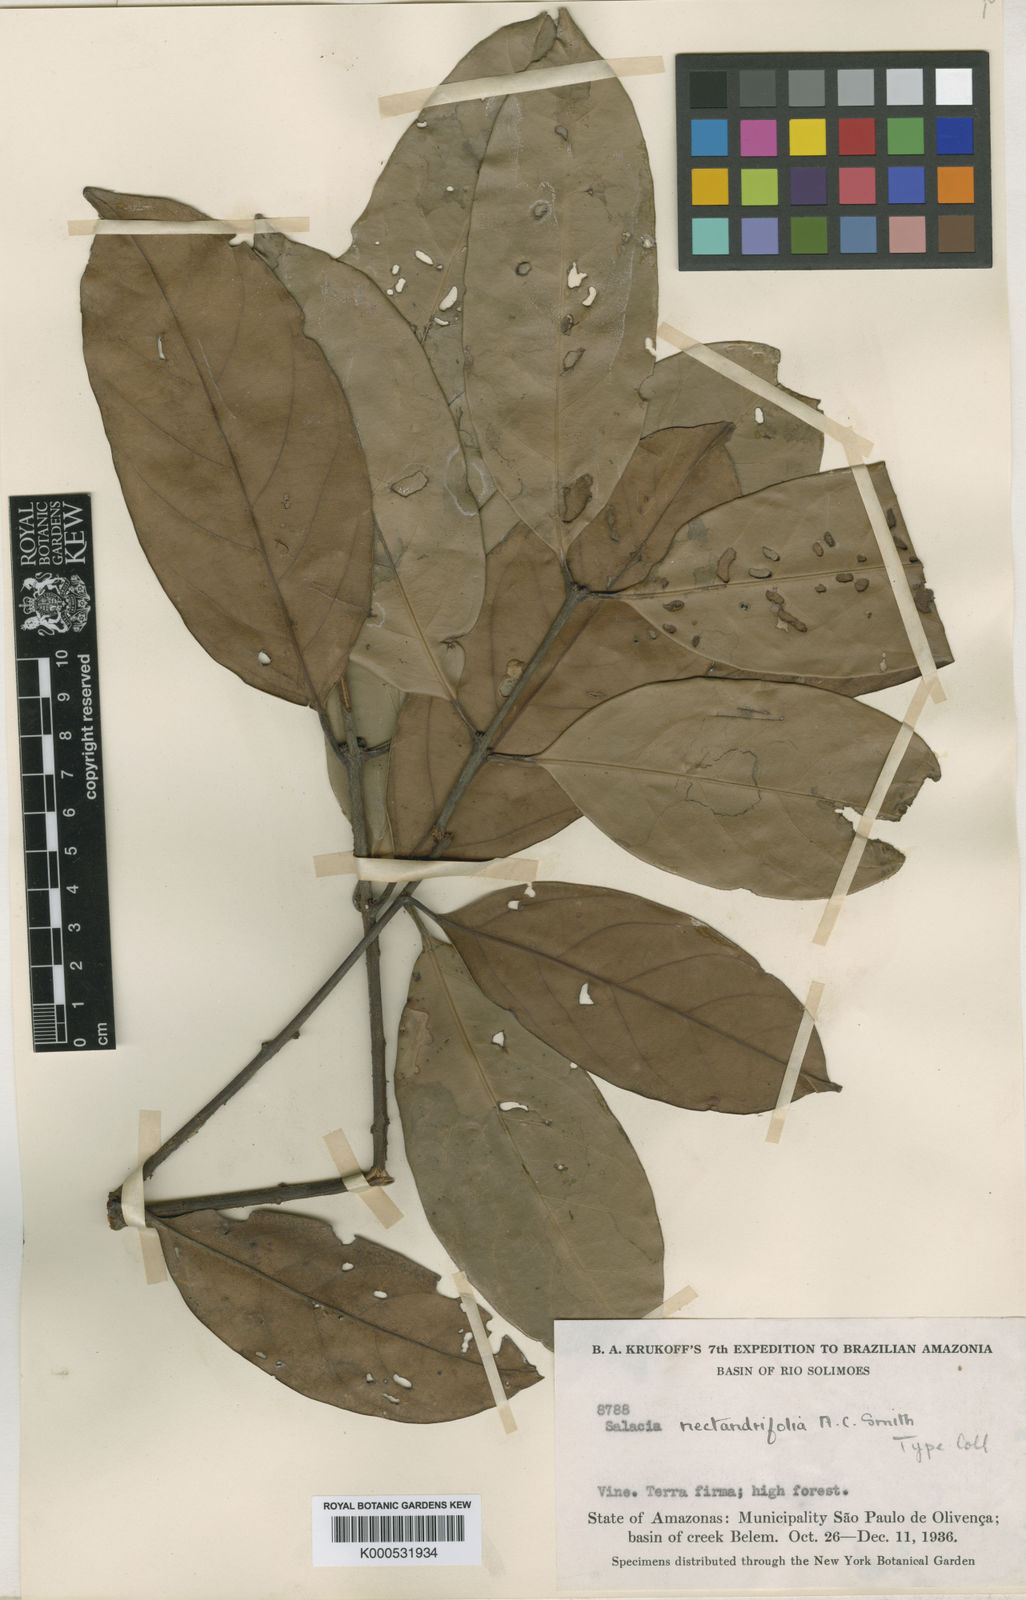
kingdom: Plantae
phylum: Tracheophyta
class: Magnoliopsida
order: Celastrales
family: Celastraceae
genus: Peritassa
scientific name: Peritassa nectandrifolia
